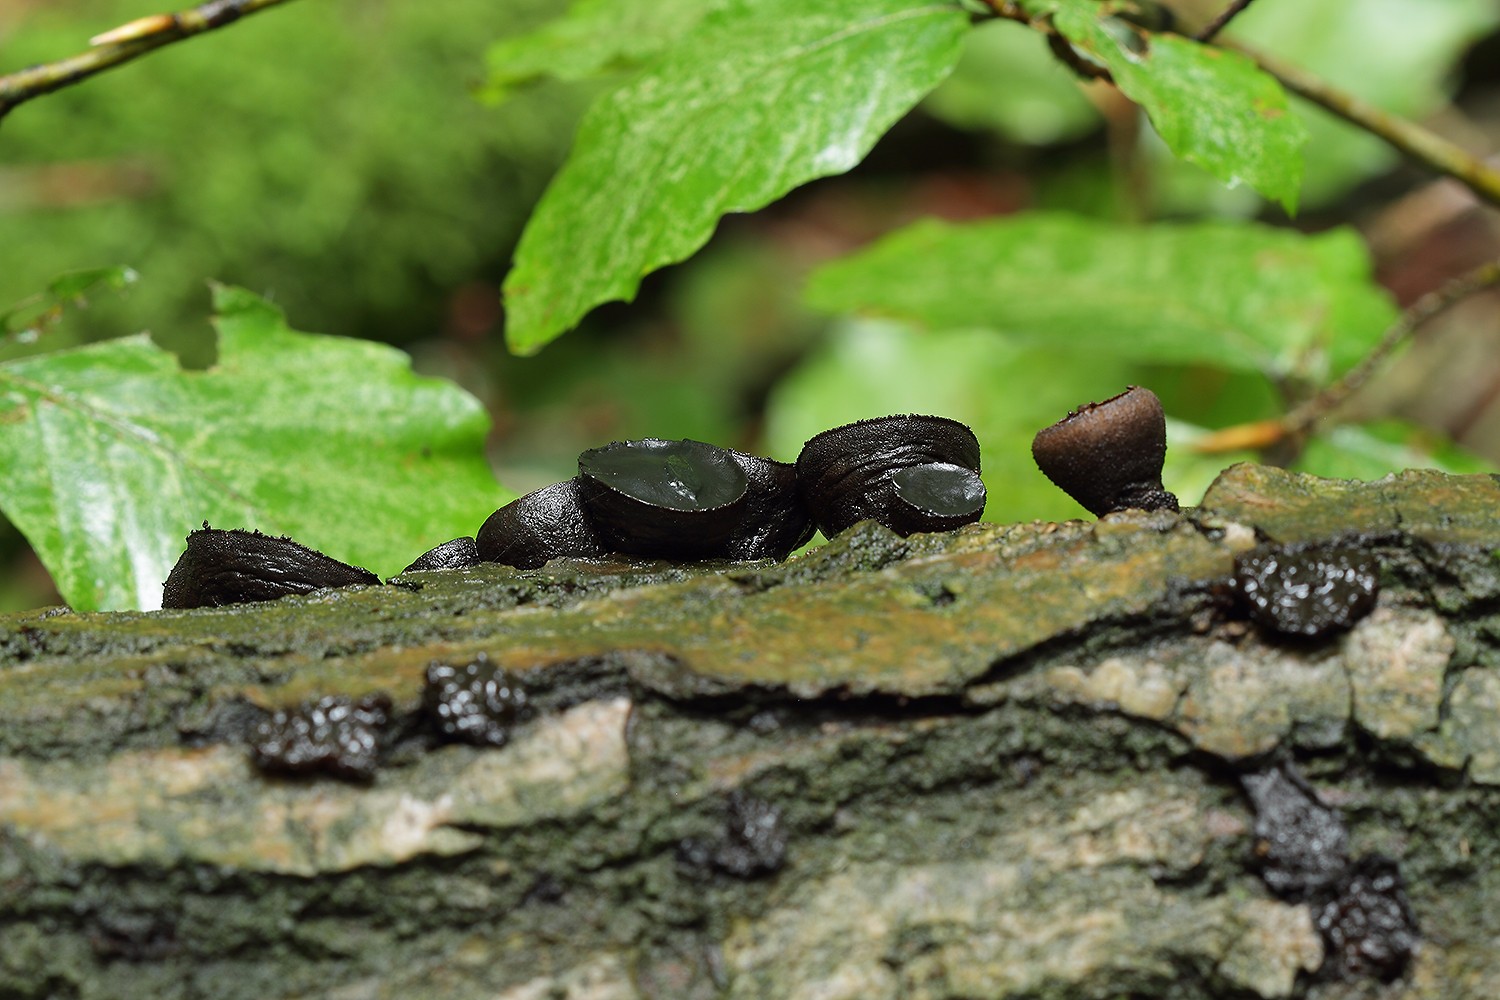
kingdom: Fungi
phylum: Ascomycota
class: Leotiomycetes
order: Phacidiales
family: Phacidiaceae
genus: Bulgaria
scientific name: Bulgaria inquinans
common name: afsmittende topsvamp
